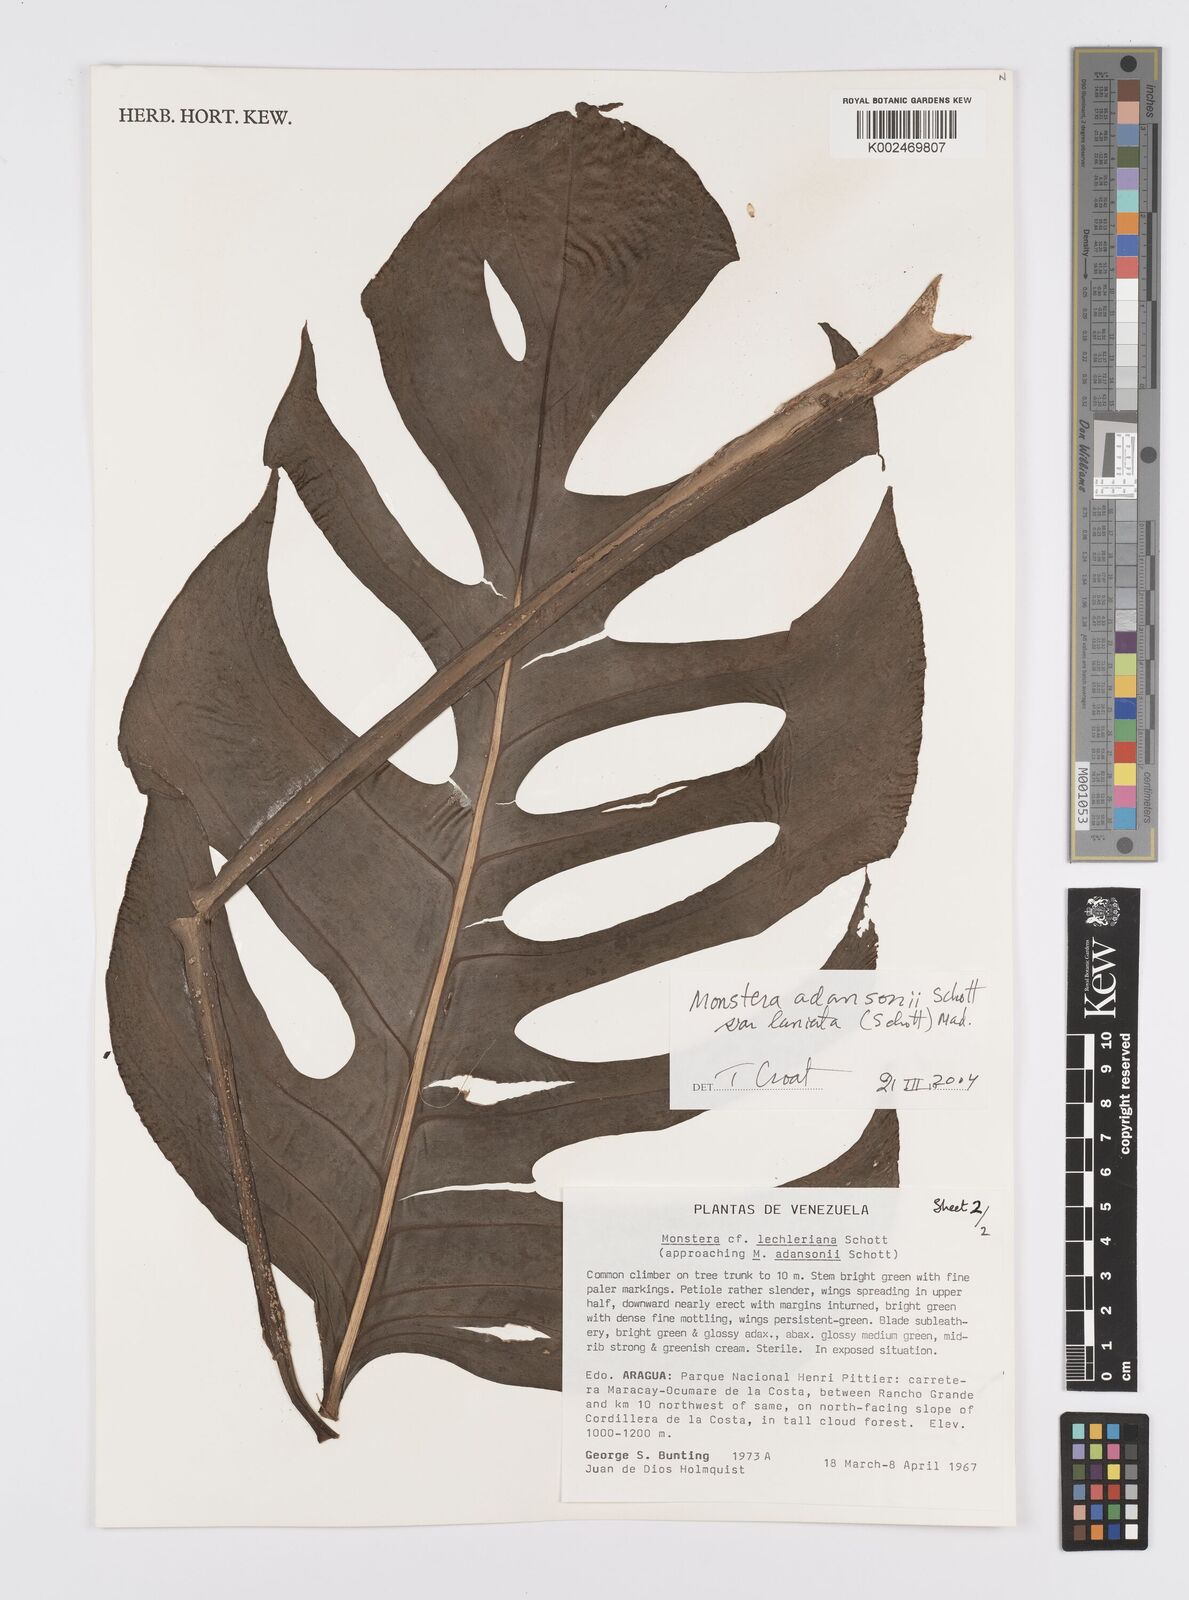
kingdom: Plantae
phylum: Tracheophyta
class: Liliopsida
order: Alismatales
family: Araceae
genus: Monstera
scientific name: Monstera adansonii
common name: Tarovine
